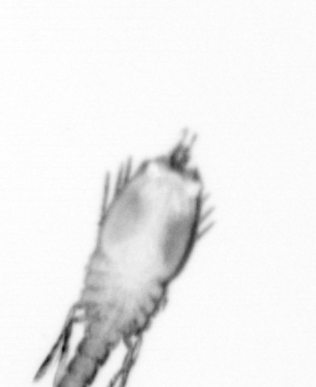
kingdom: Animalia
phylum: Annelida
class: Polychaeta
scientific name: Polychaeta
